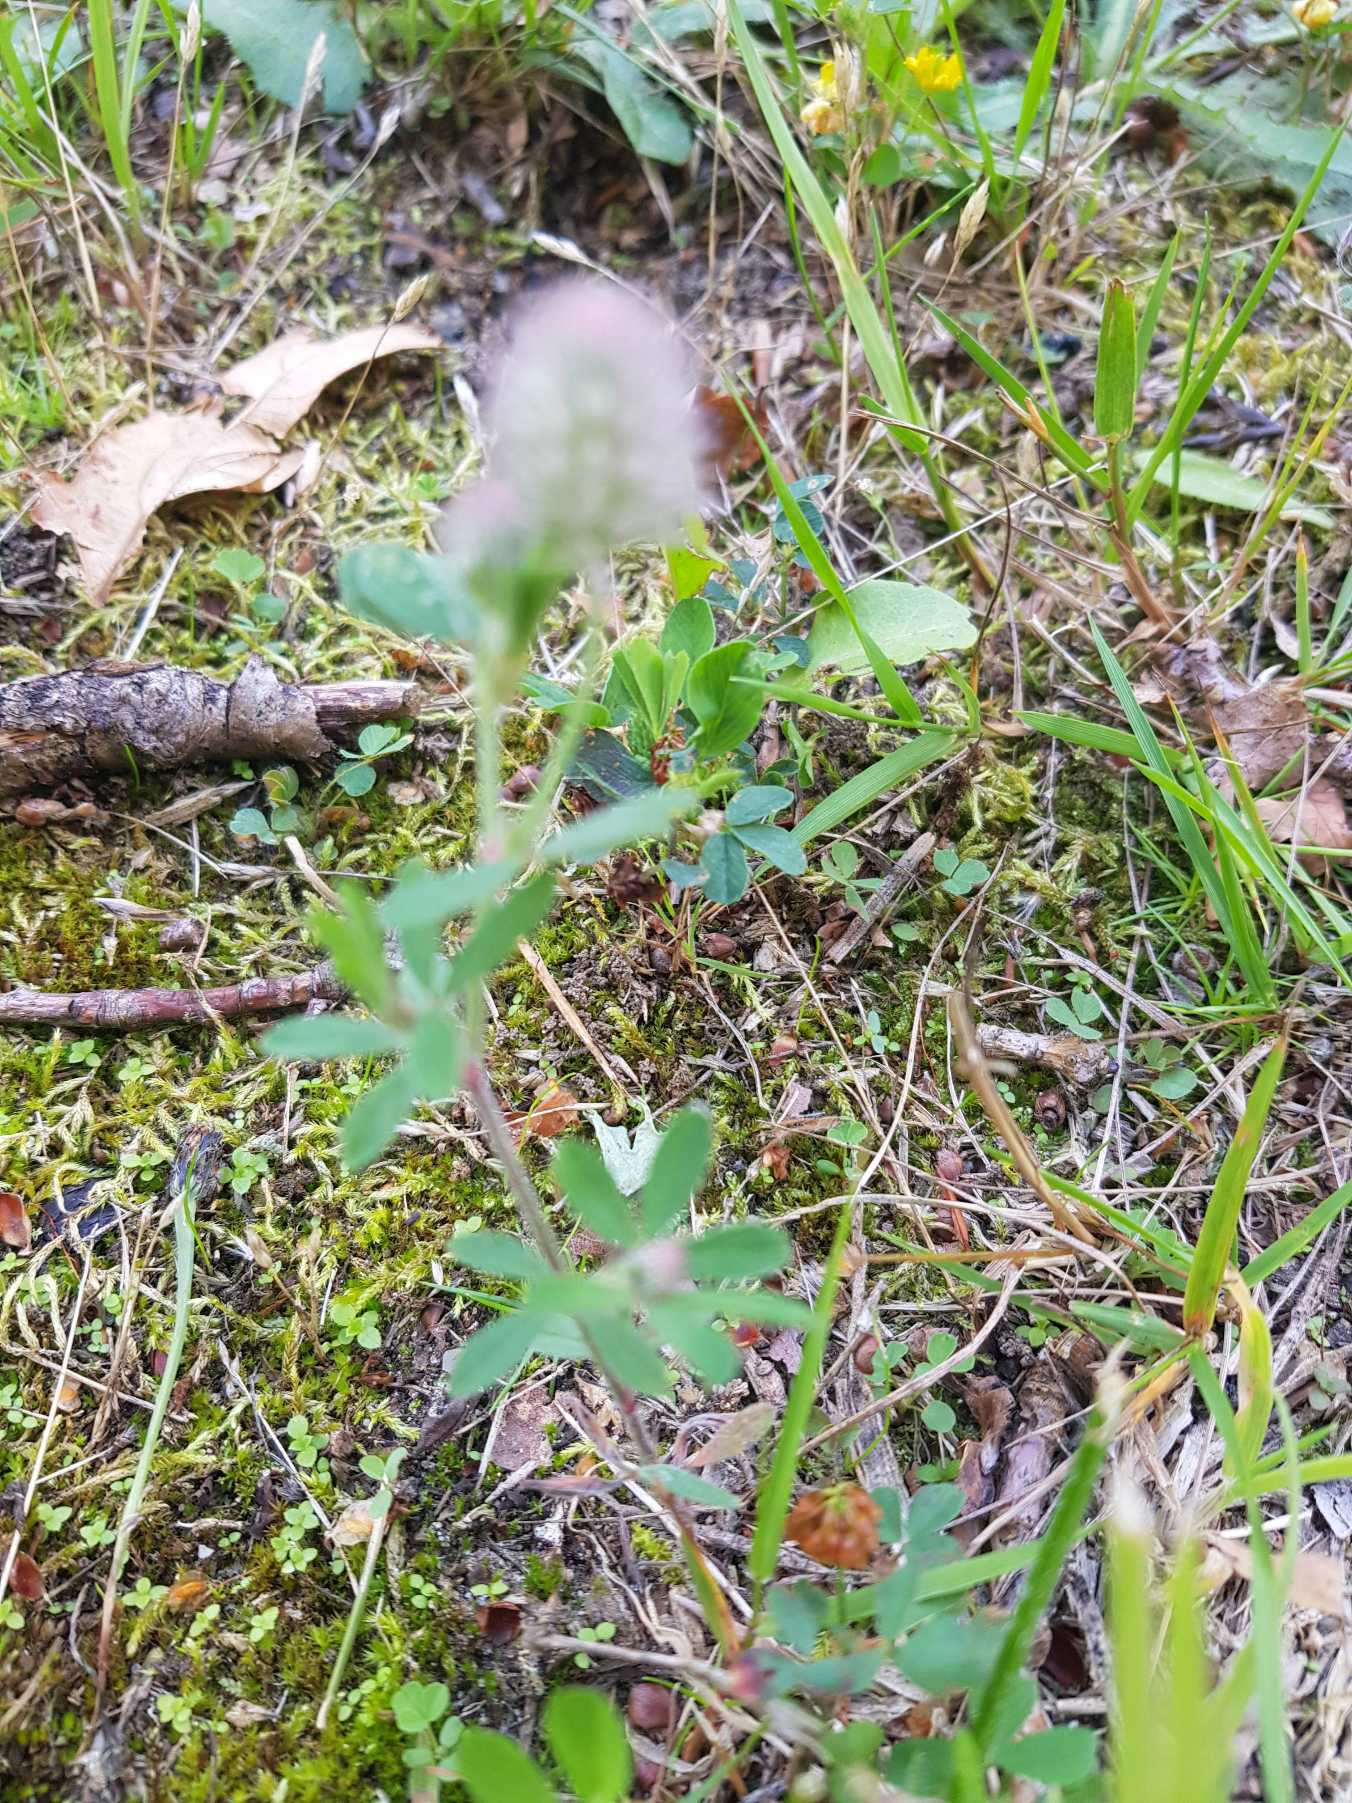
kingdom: Plantae
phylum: Tracheophyta
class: Magnoliopsida
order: Fabales
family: Fabaceae
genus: Trifolium
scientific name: Trifolium arvense
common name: Hare-kløver
